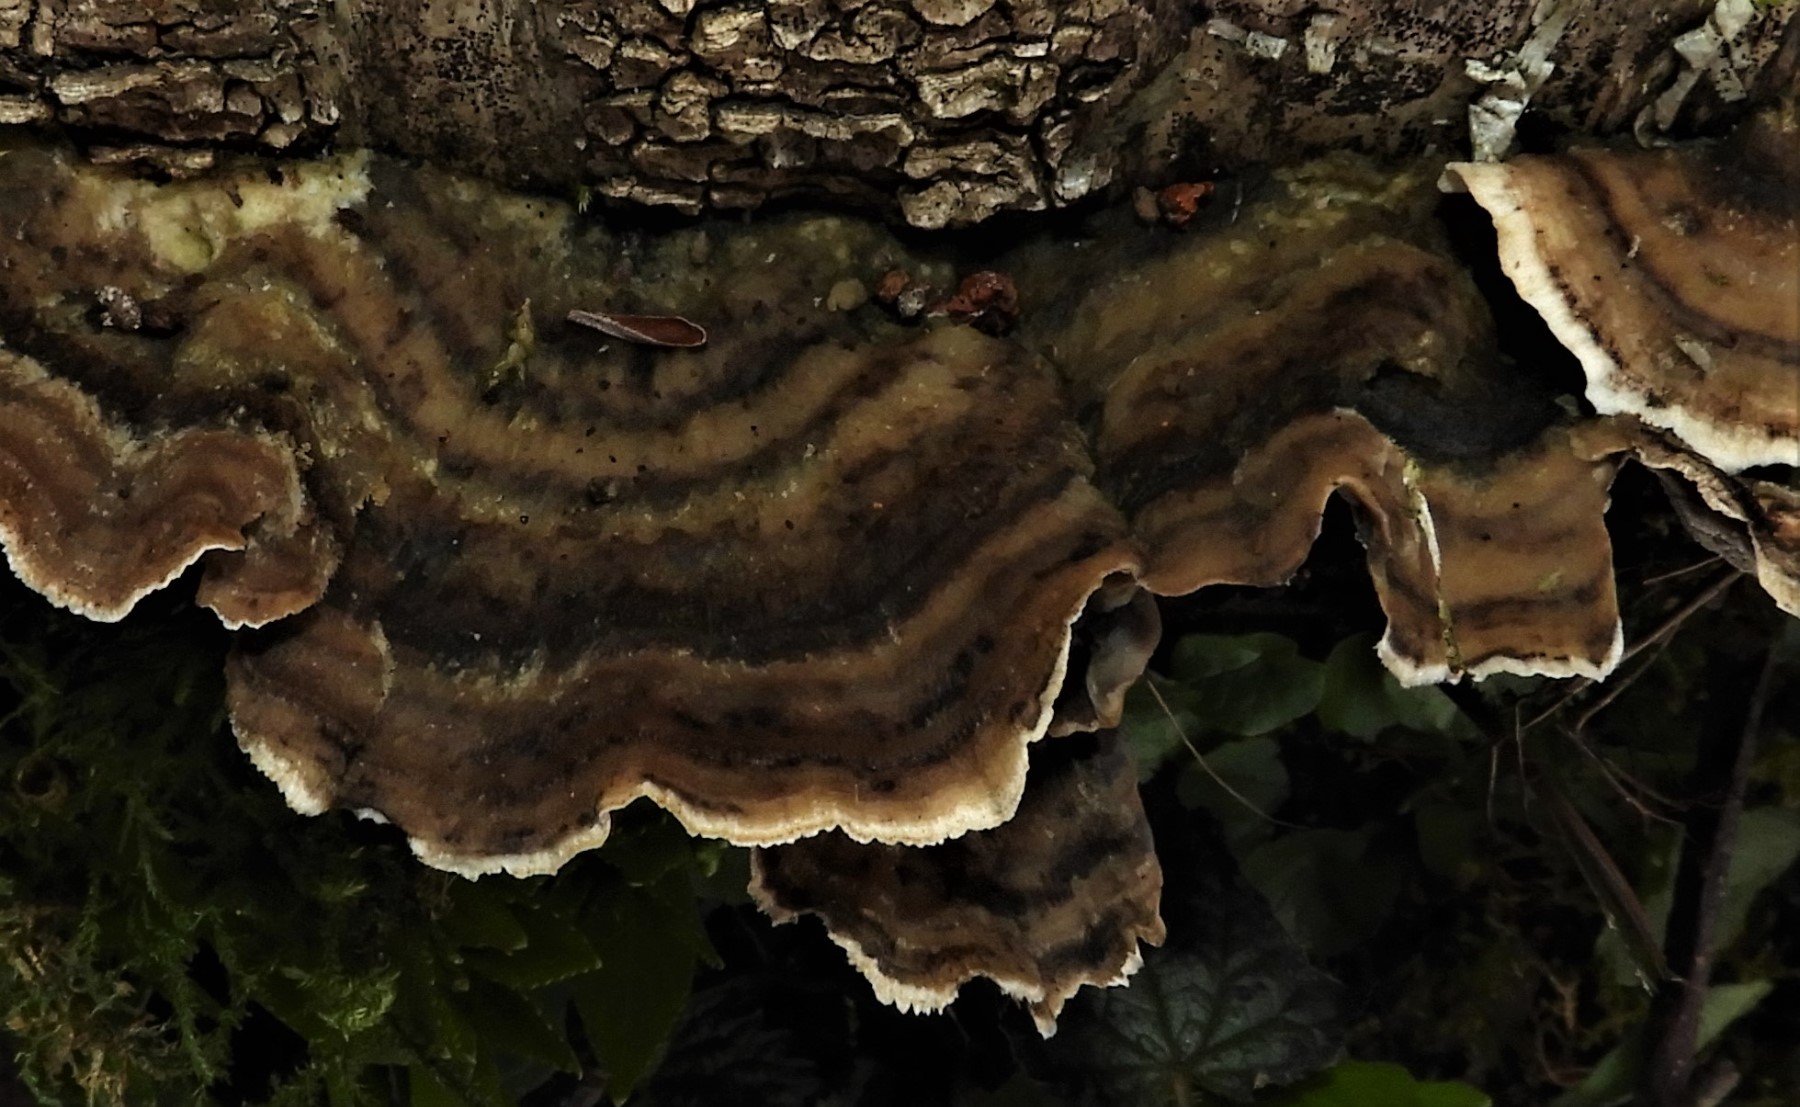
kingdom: Fungi
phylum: Basidiomycota
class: Agaricomycetes
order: Polyporales
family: Phanerochaetaceae
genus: Bjerkandera
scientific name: Bjerkandera adusta
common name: sveden sodporesvamp
